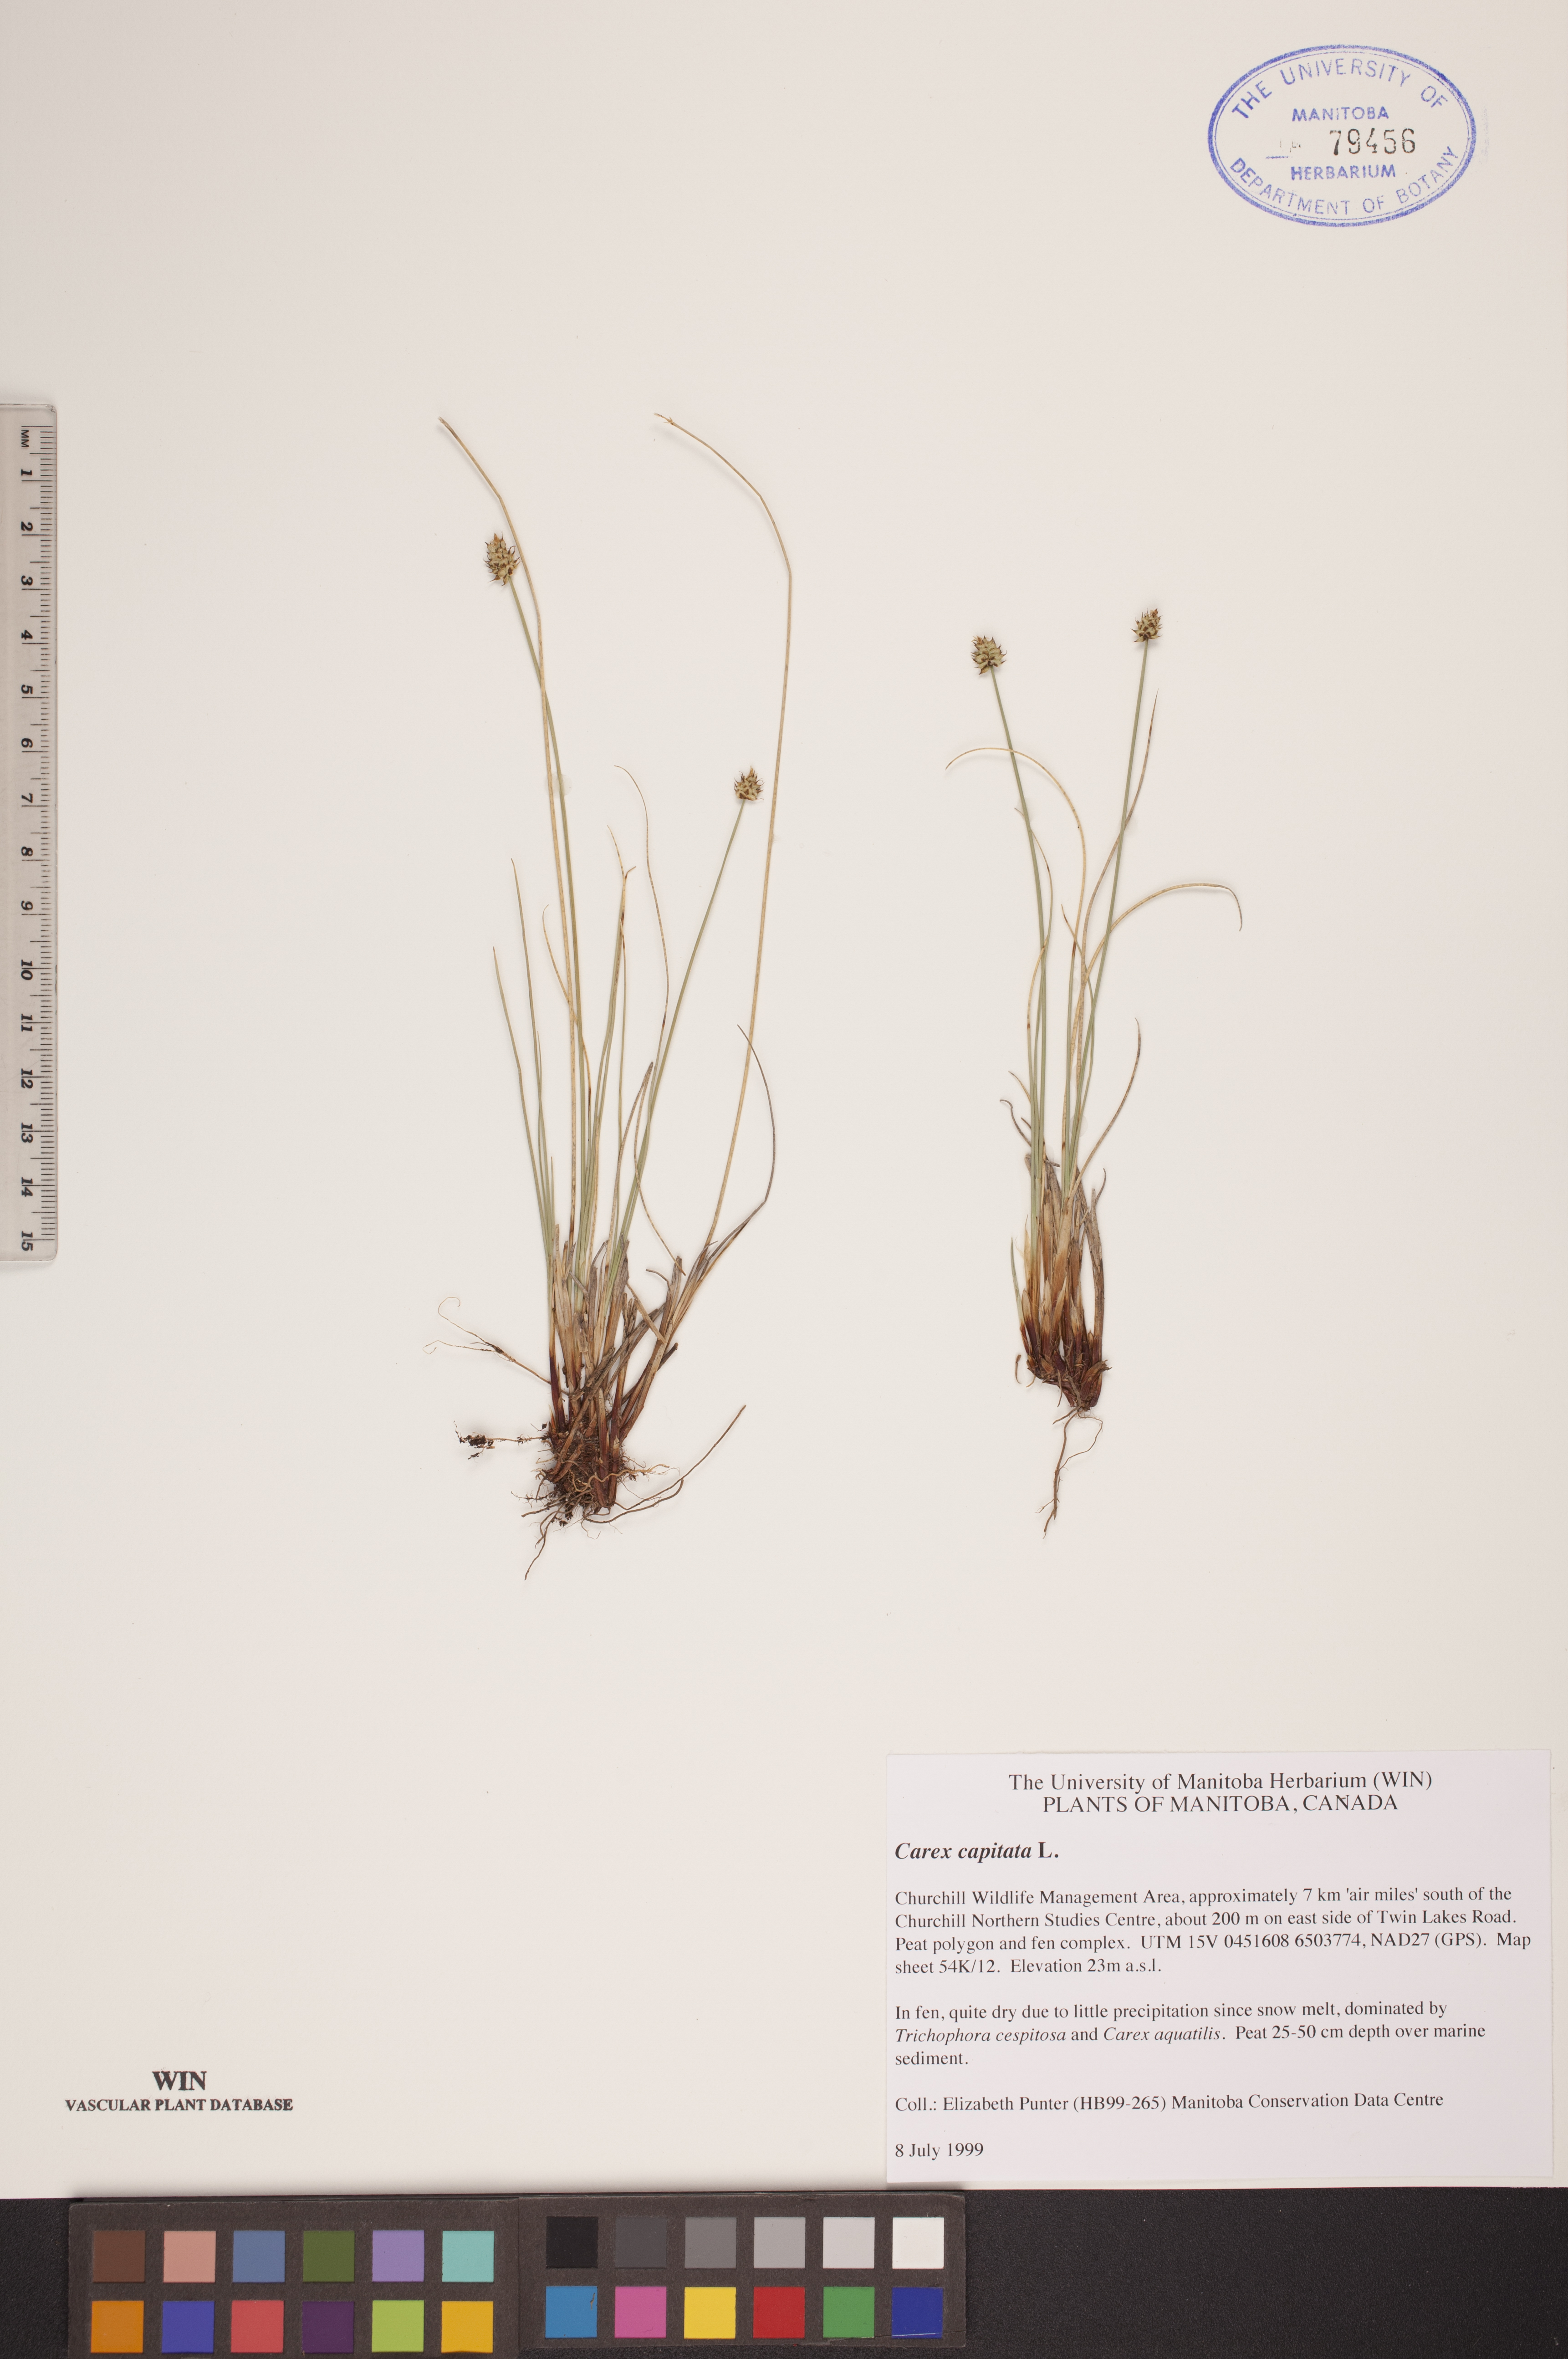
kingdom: Plantae
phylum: Tracheophyta
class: Liliopsida
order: Poales
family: Cyperaceae
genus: Carex
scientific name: Carex capitata
